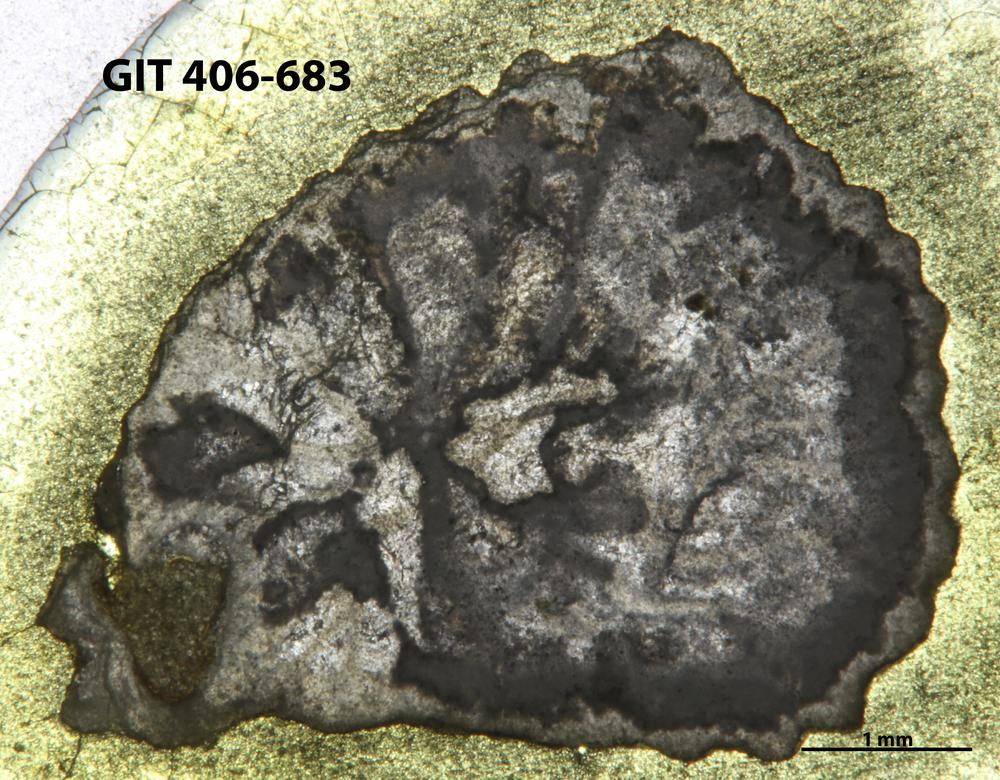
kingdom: Animalia
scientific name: Animalia
